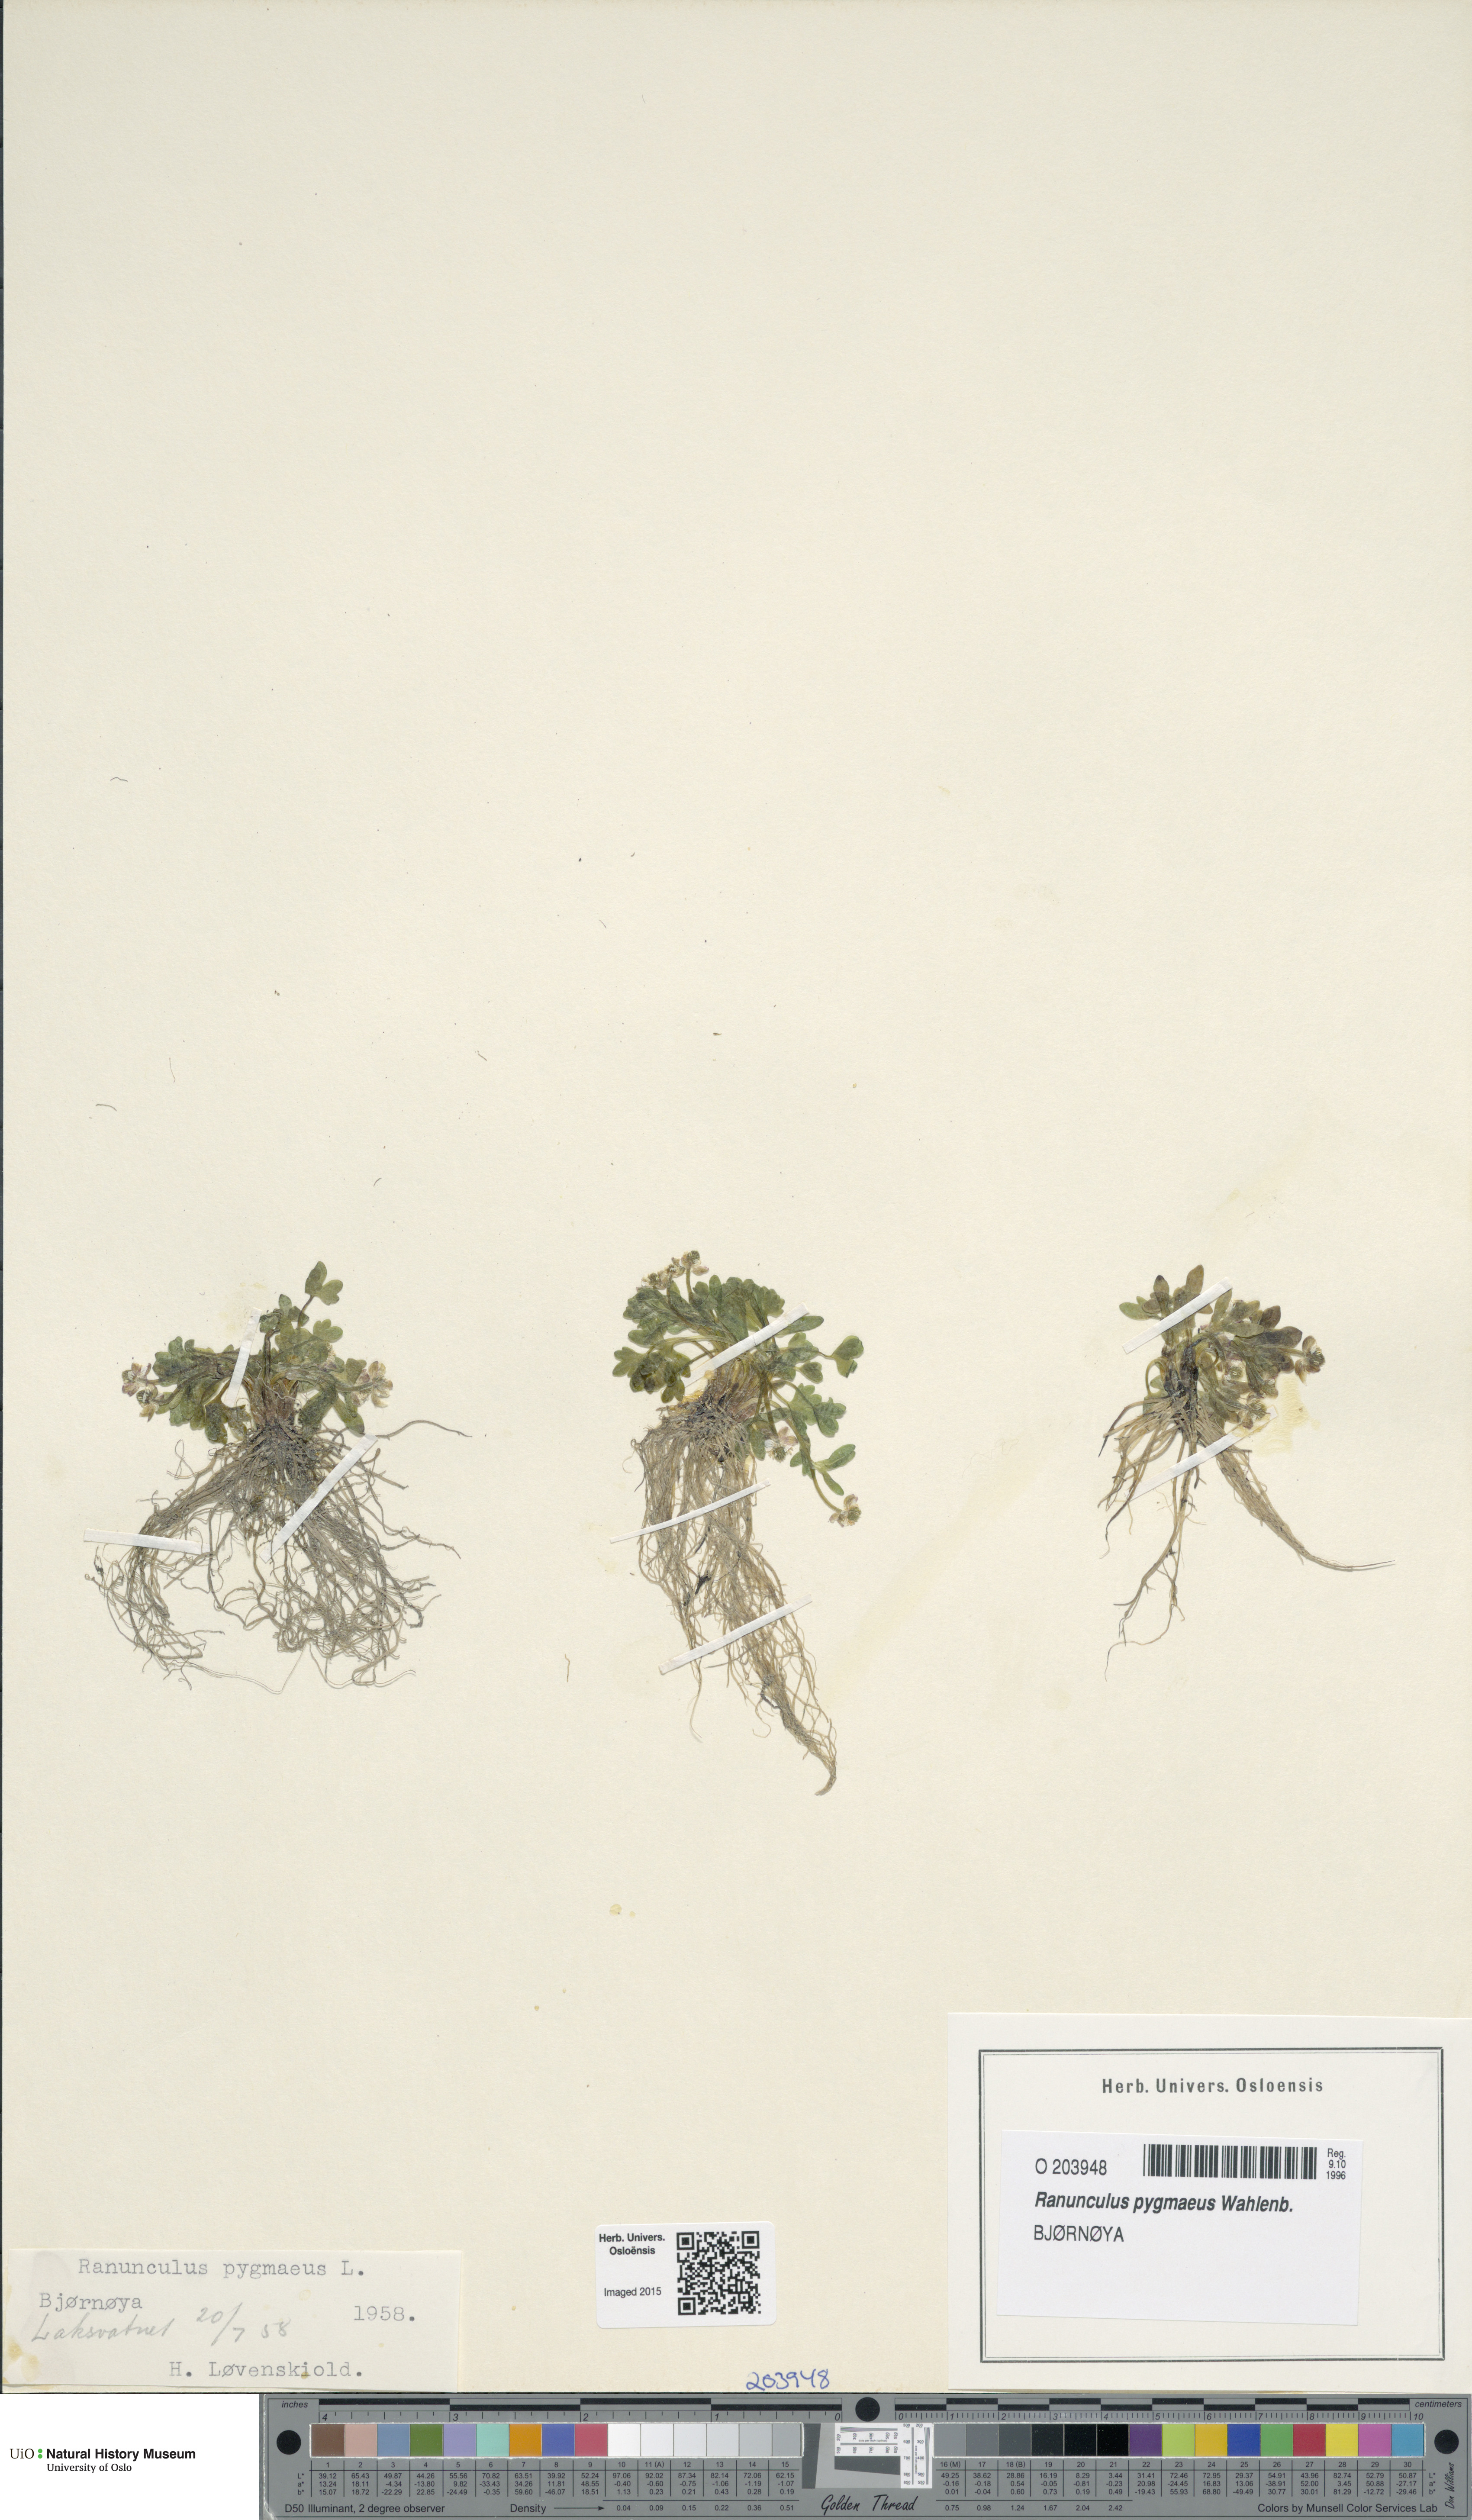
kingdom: Plantae
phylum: Tracheophyta
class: Magnoliopsida
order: Ranunculales
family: Ranunculaceae
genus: Ranunculus
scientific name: Ranunculus pygmaeus
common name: Dwarf buttercup
